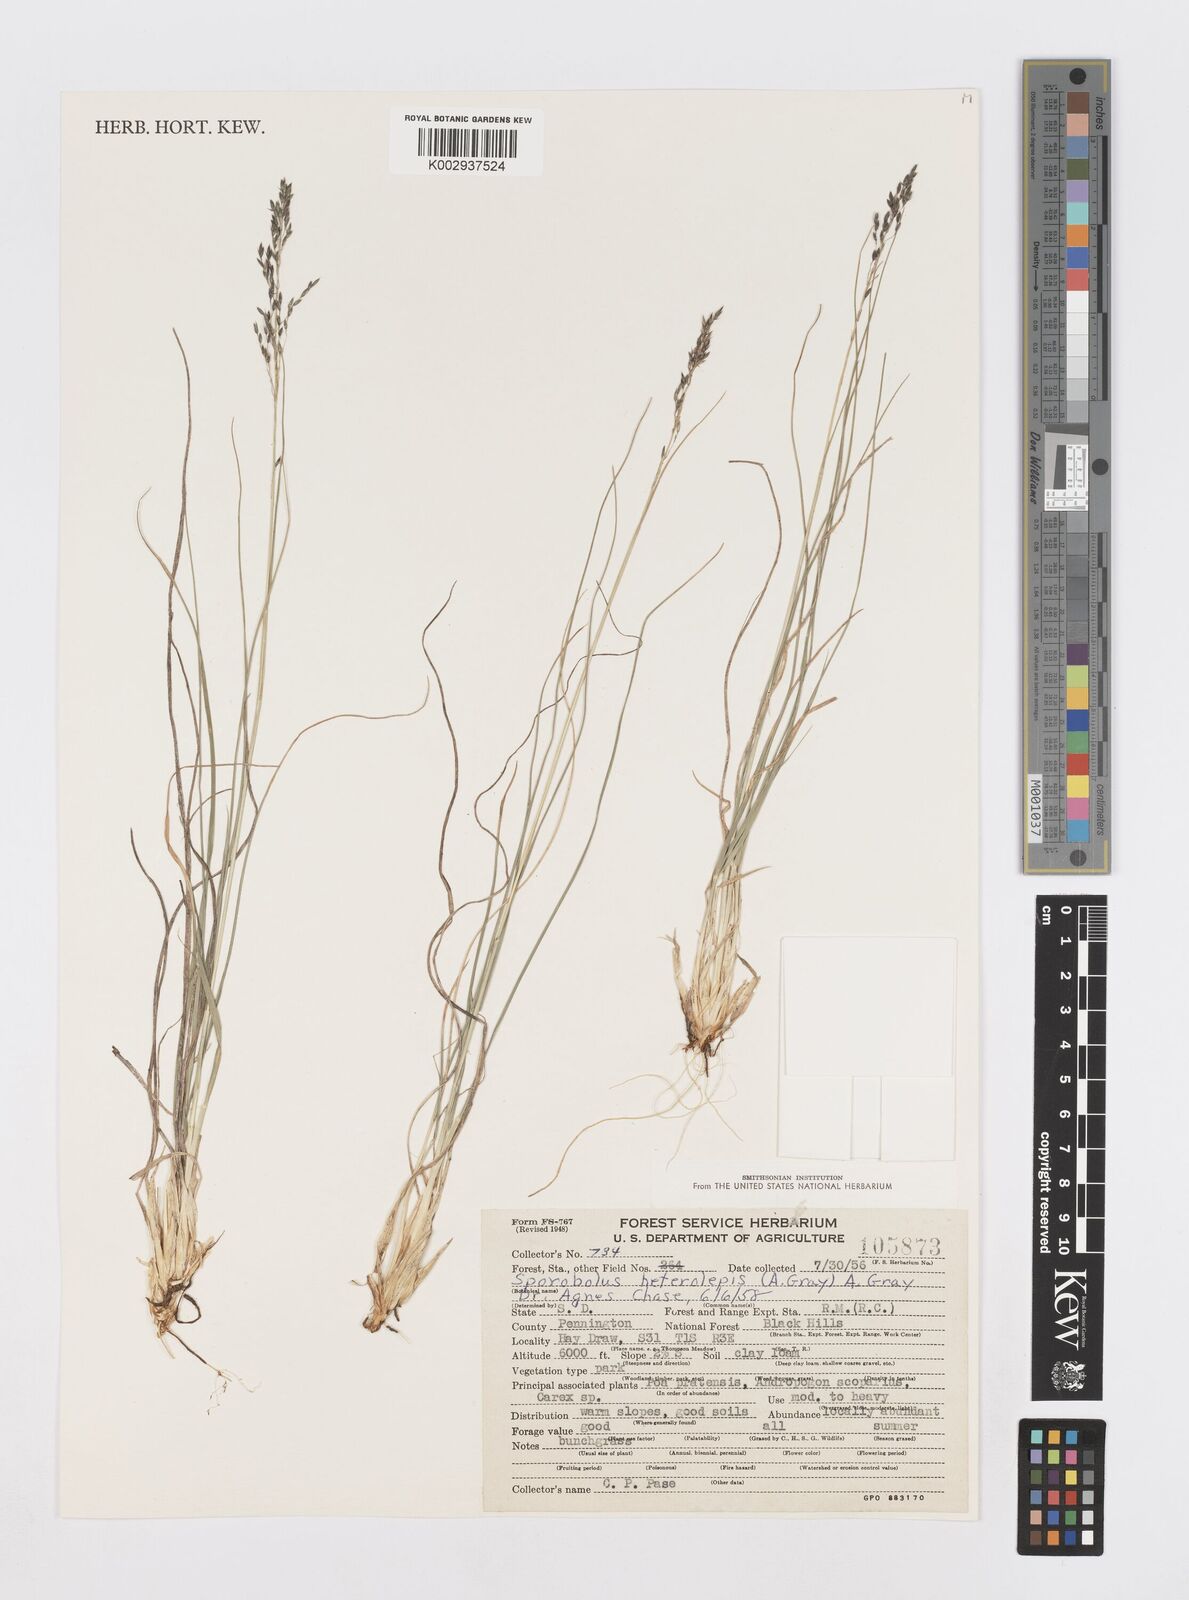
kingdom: Plantae
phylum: Tracheophyta
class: Liliopsida
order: Poales
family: Poaceae
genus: Sporobolus
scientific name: Sporobolus heterolepis
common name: Prairie dropseed
